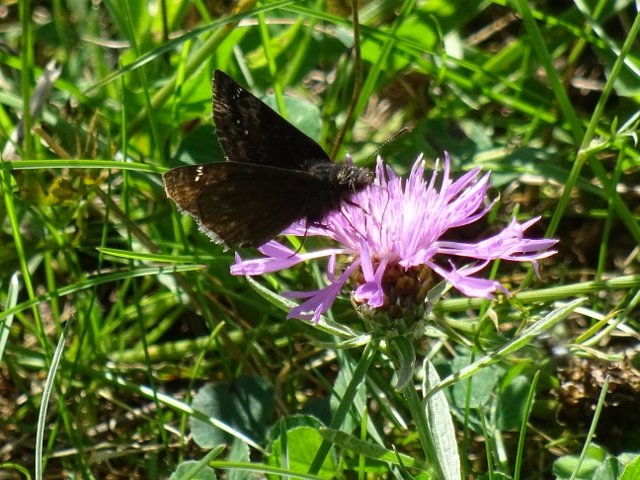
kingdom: Animalia
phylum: Arthropoda
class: Insecta
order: Lepidoptera
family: Hesperiidae
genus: Gesta
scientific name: Gesta
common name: Wild Indigo Duskywing
